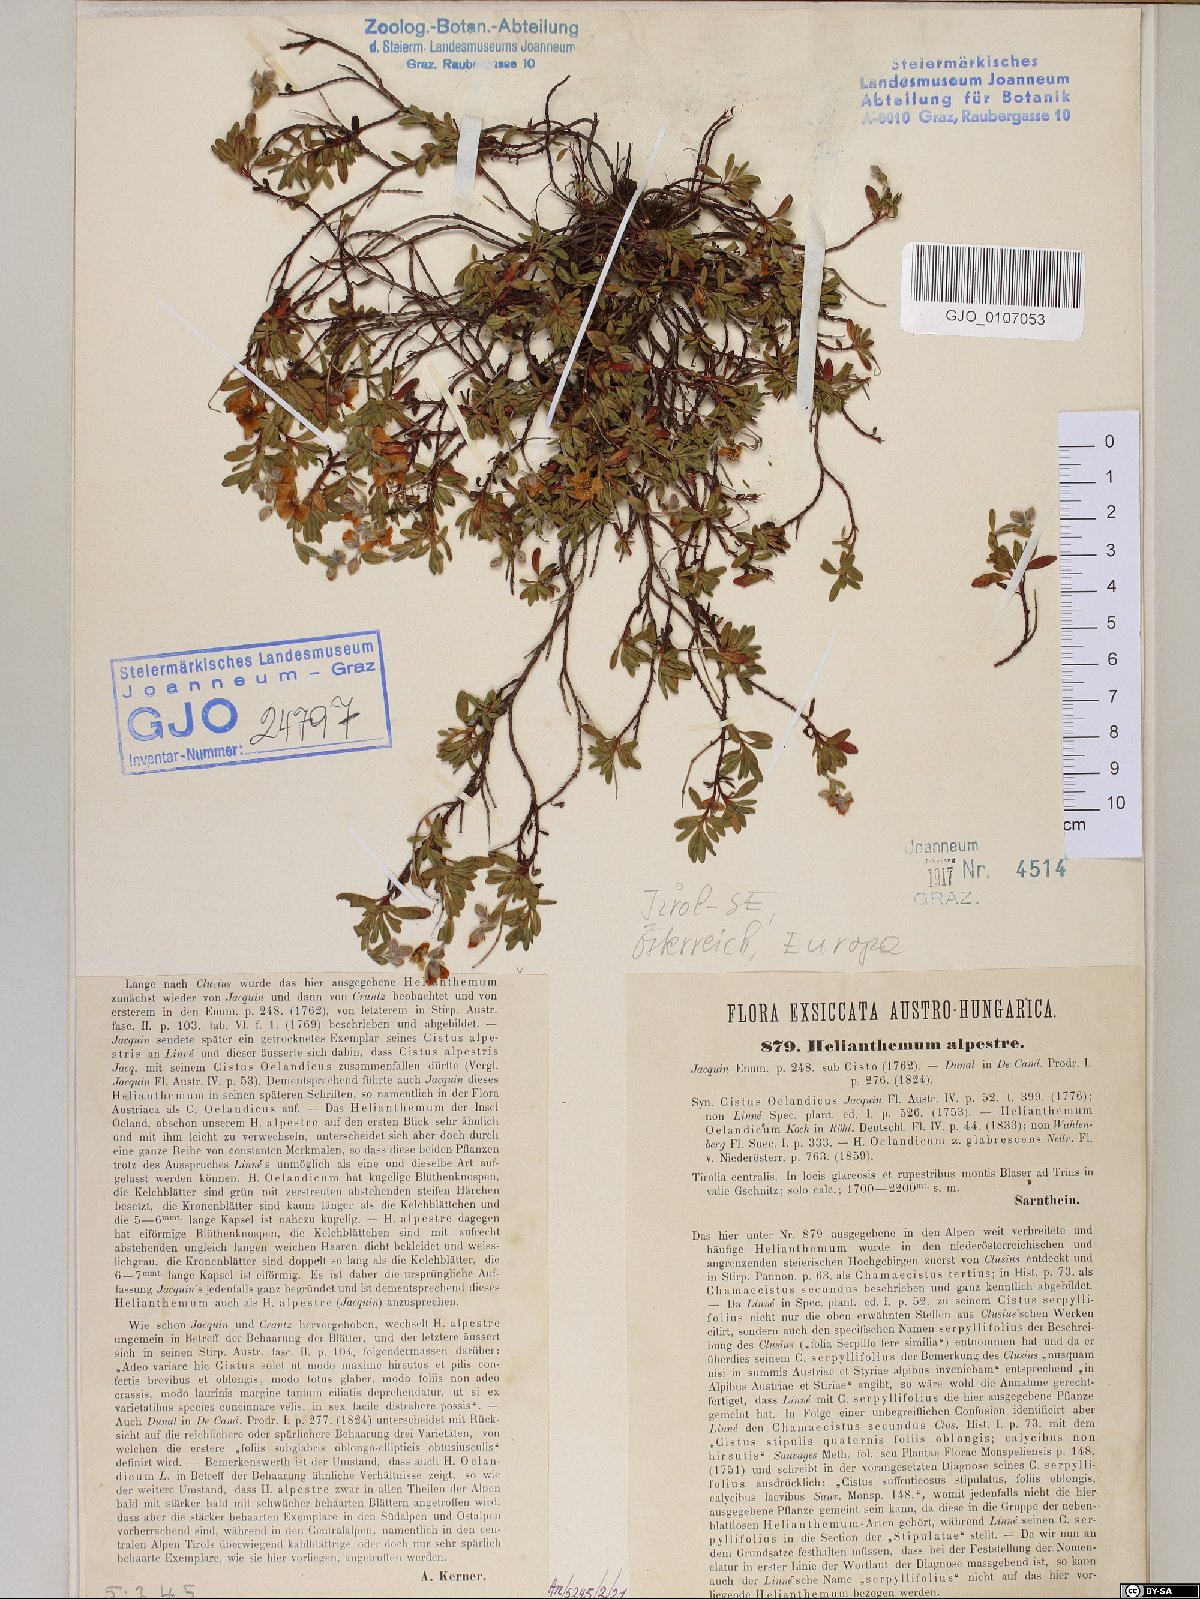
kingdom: Plantae
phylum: Tracheophyta
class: Magnoliopsida
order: Malvales
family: Cistaceae
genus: Helianthemum
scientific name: Helianthemum alpestre
